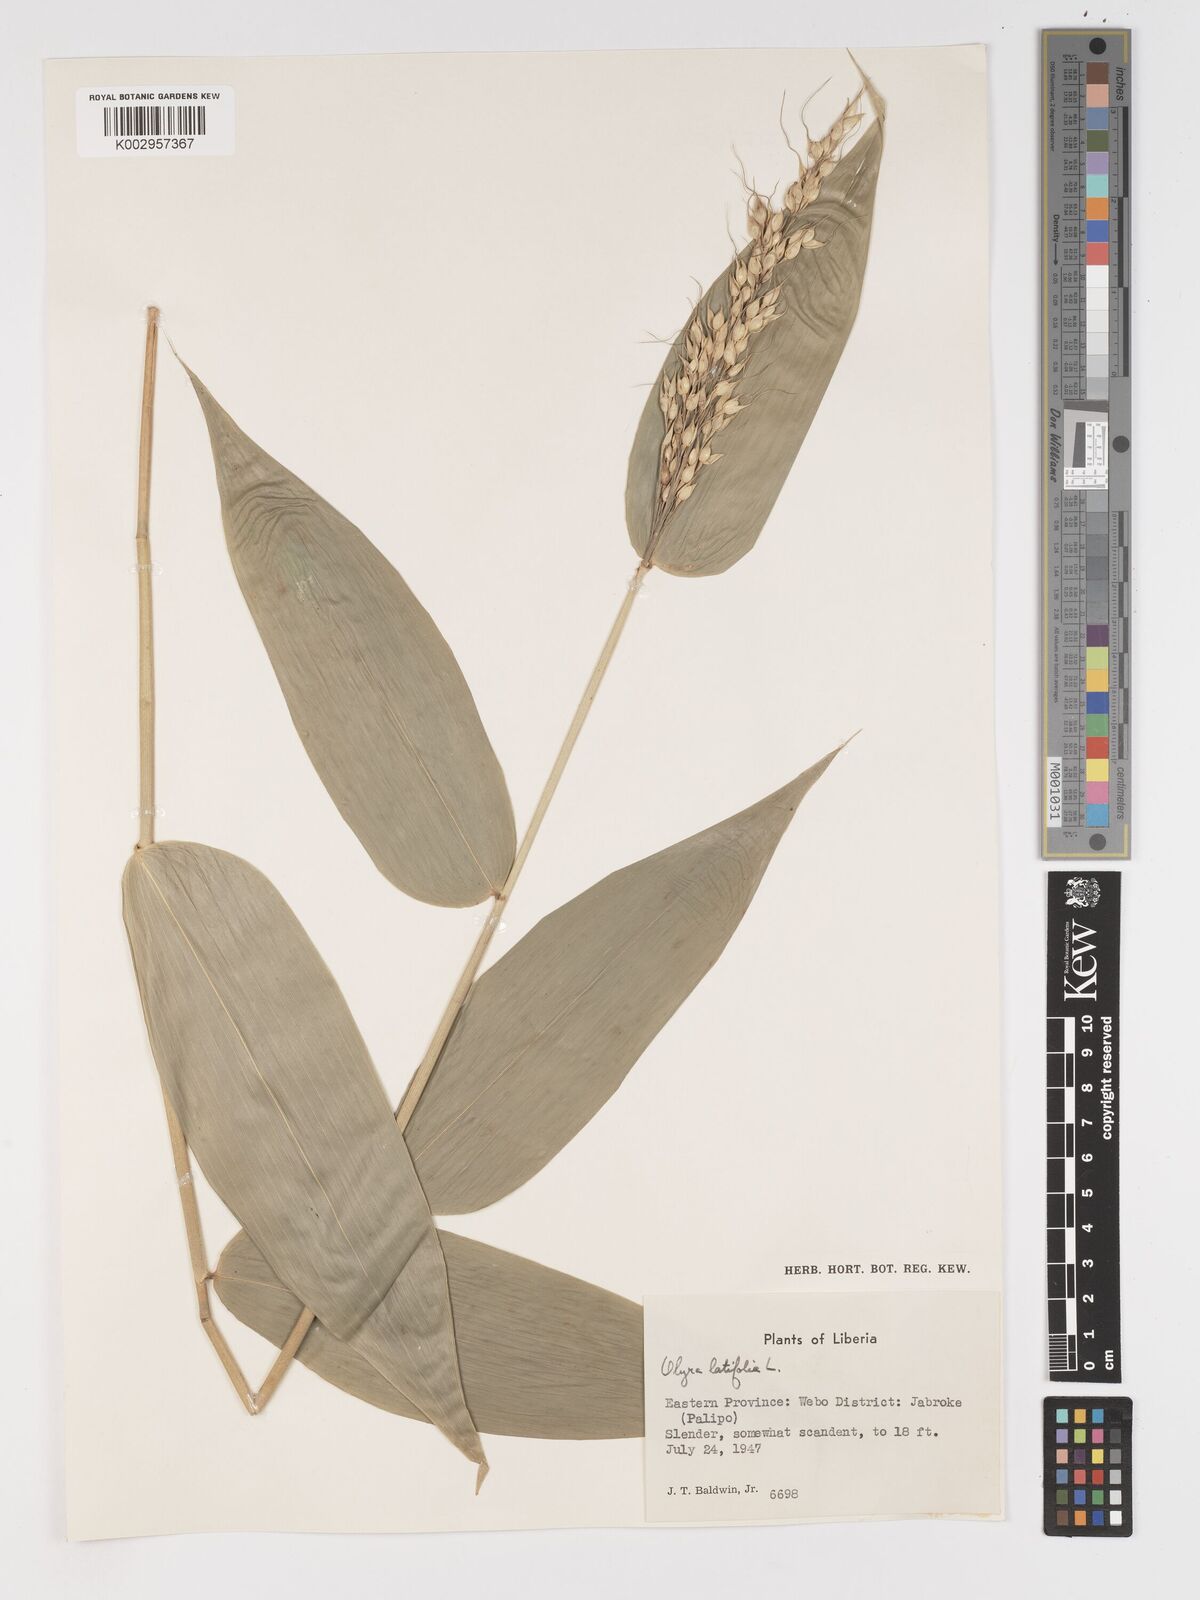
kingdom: Plantae
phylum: Tracheophyta
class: Liliopsida
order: Poales
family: Poaceae
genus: Olyra
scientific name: Olyra latifolia
